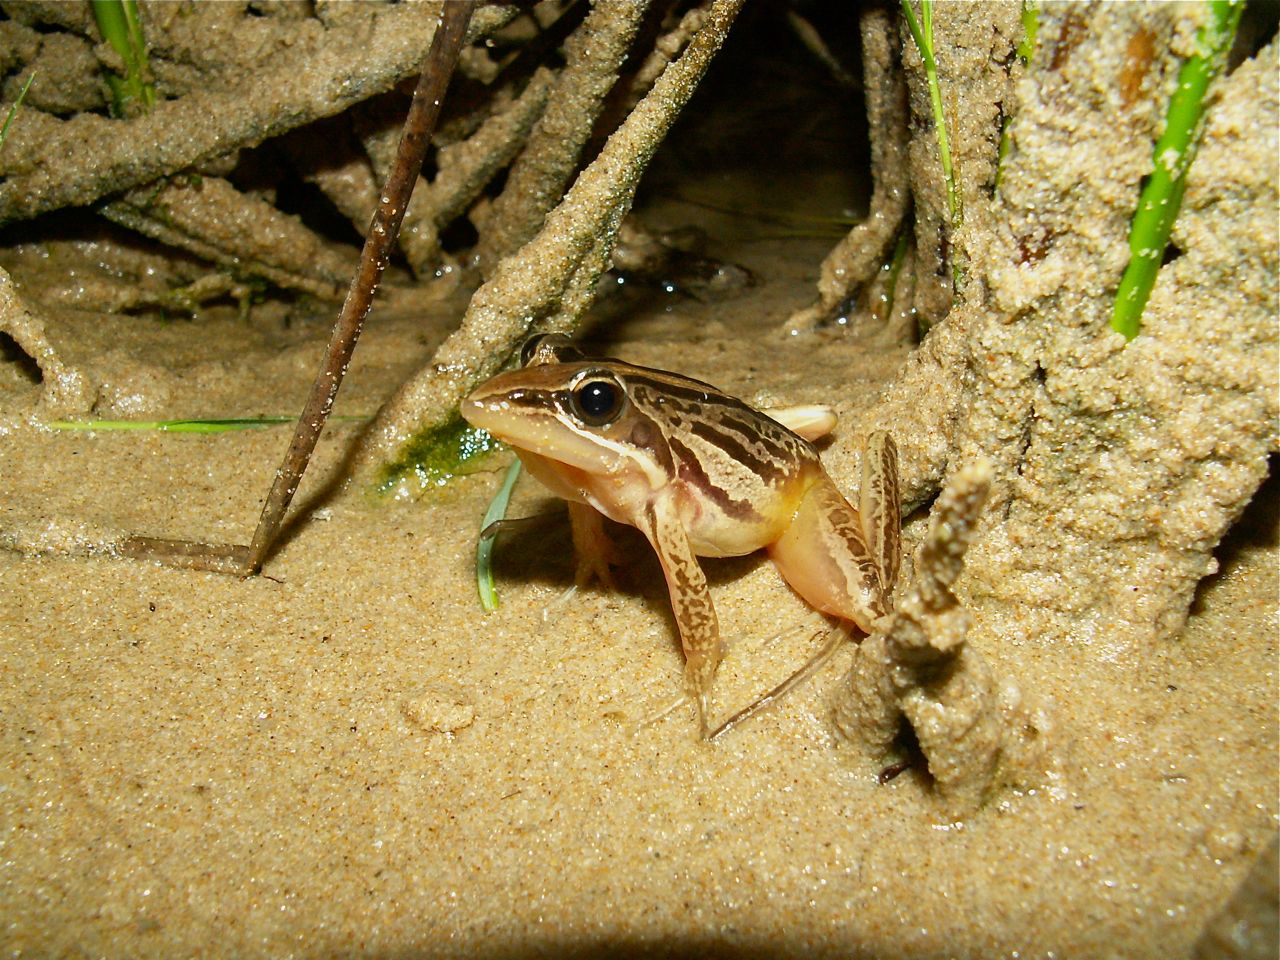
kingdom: Animalia
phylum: Chordata
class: Amphibia
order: Anura
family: Pyxicephalidae
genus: Tomopterna
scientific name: Tomopterna delalandii
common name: Delalande's burrowing bullfrog
